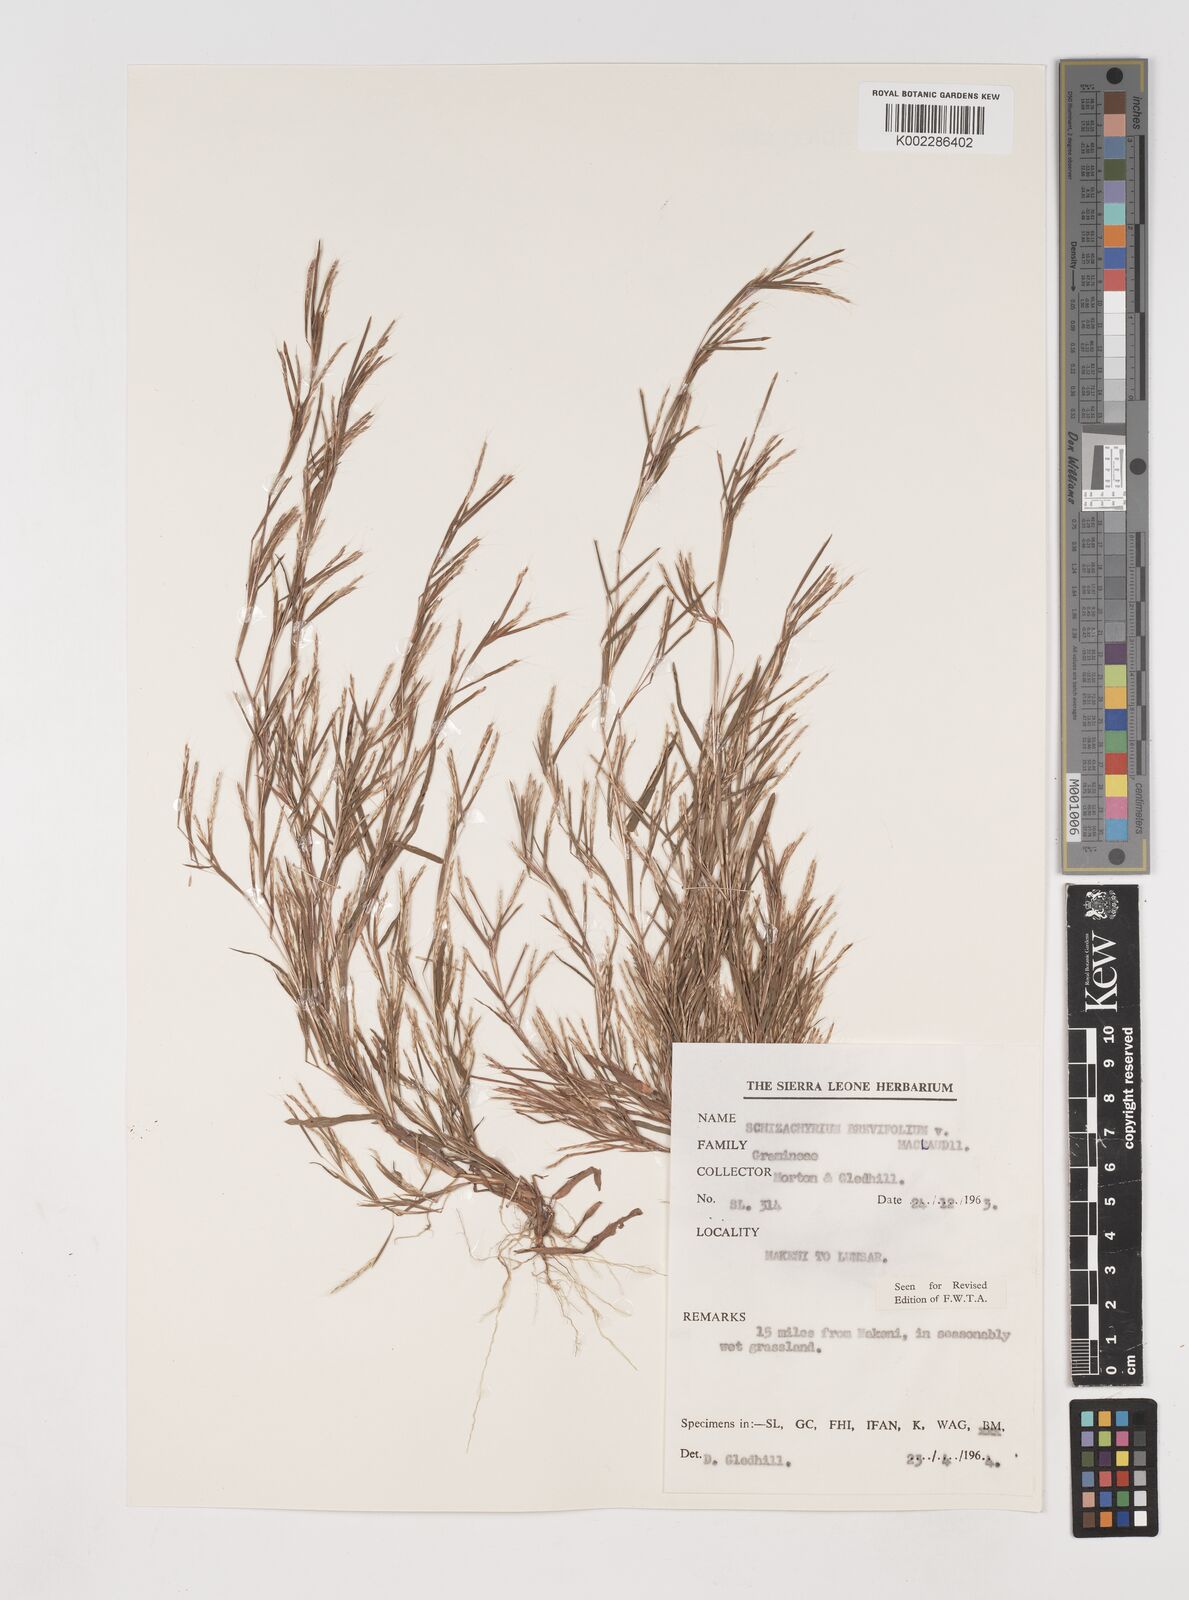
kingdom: Plantae
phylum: Tracheophyta
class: Liliopsida
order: Poales
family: Poaceae
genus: Schizachyrium
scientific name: Schizachyrium maclaudii
